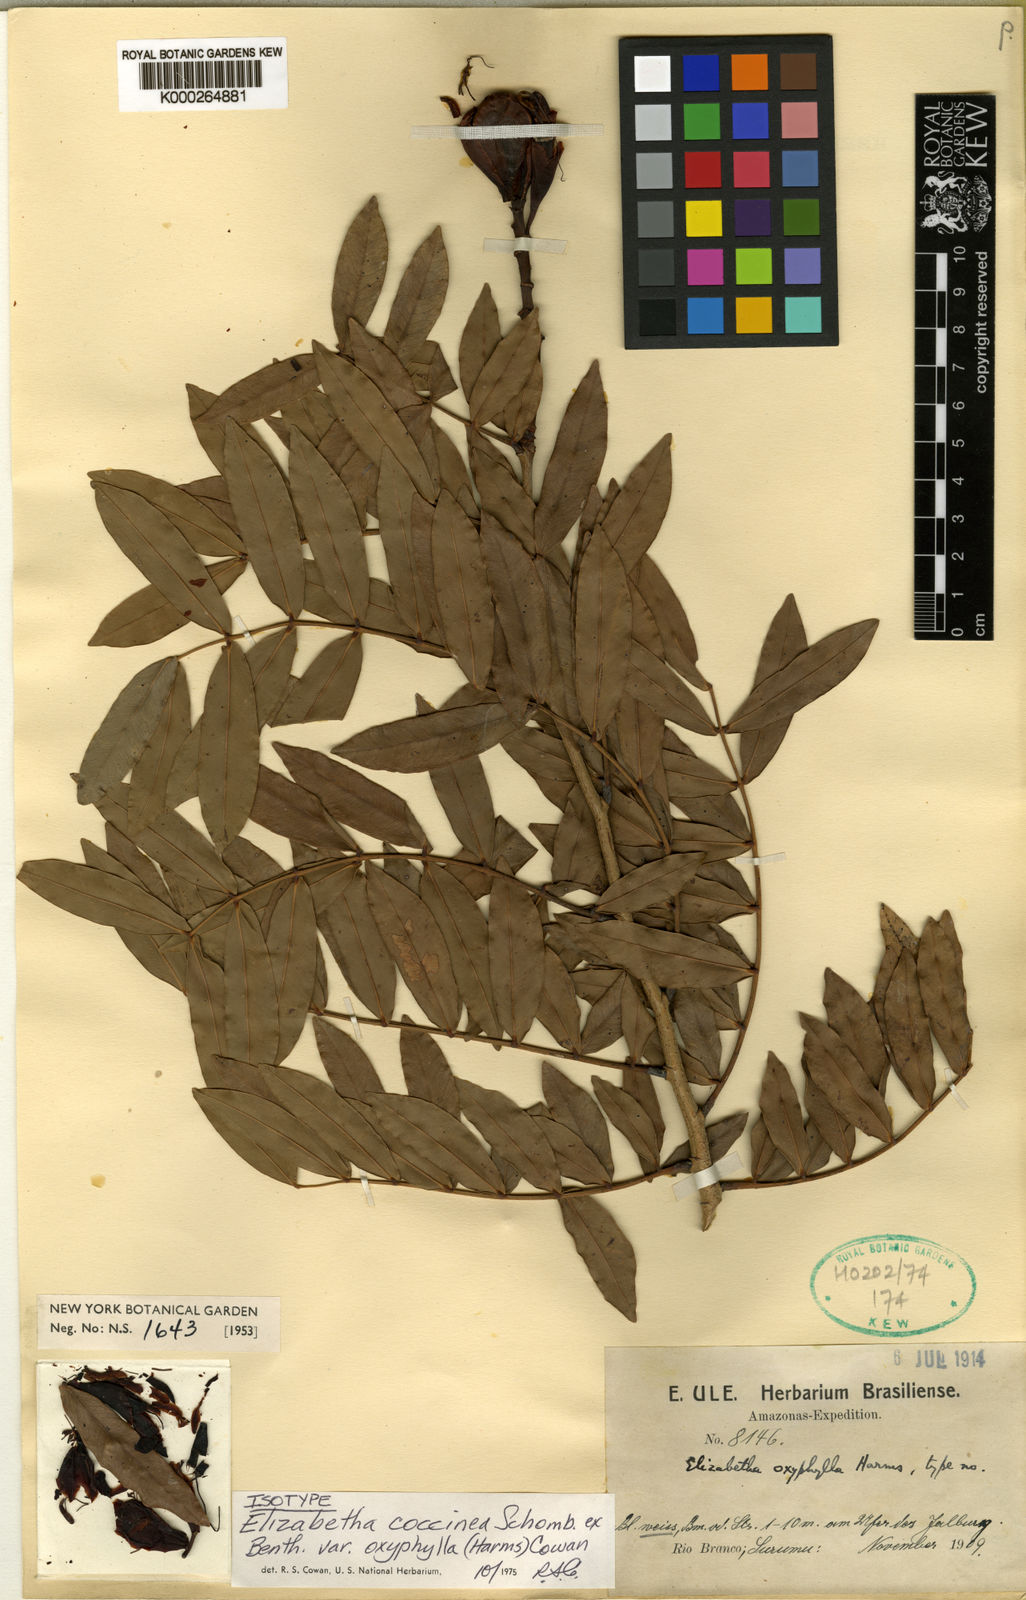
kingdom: Plantae
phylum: Tracheophyta
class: Magnoliopsida
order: Fabales
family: Fabaceae
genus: Paloue
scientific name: Paloue coccinea
